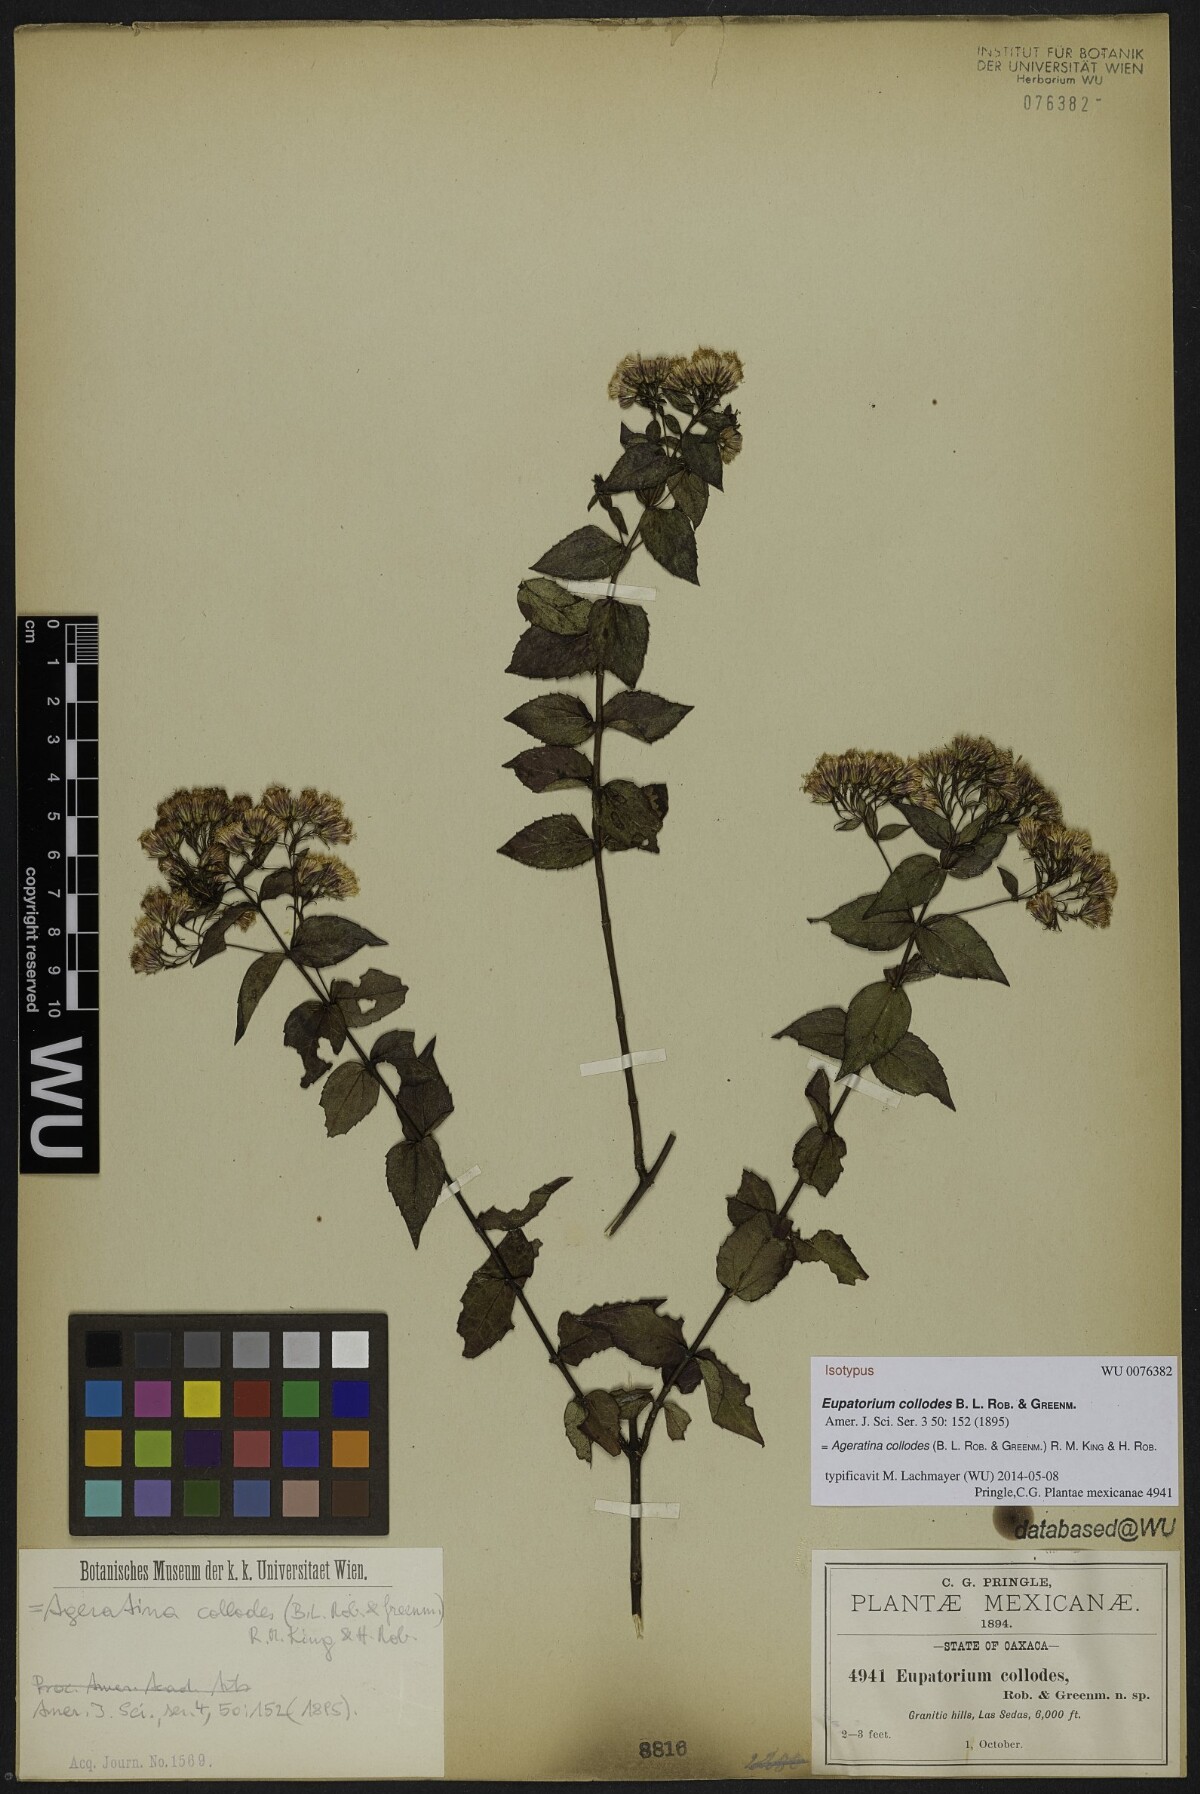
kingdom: Plantae
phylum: Tracheophyta
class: Magnoliopsida
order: Asterales
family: Asteraceae
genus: Ageratina
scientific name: Ageratina collodes
